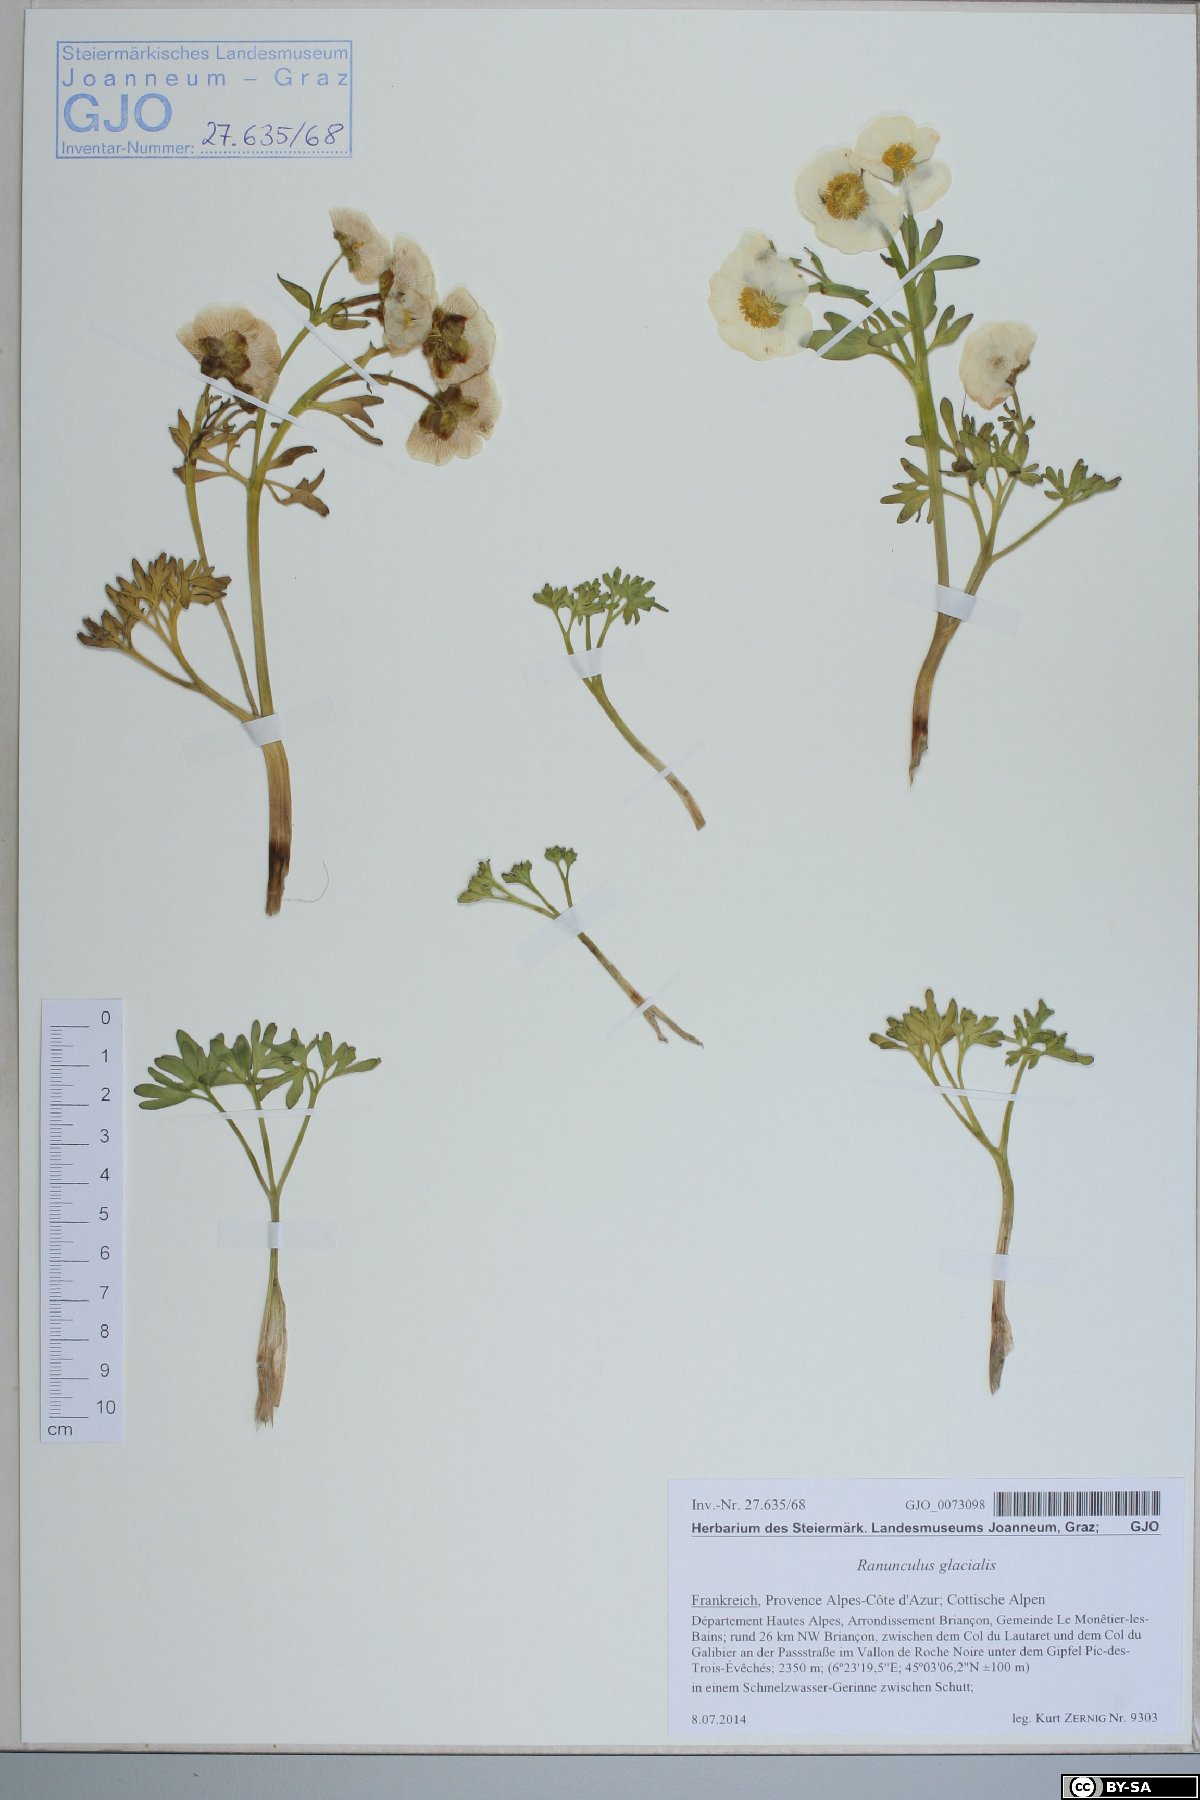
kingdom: Plantae
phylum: Tracheophyta
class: Magnoliopsida
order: Ranunculales
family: Ranunculaceae
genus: Ranunculus
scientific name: Ranunculus glacialis
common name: Glacier buttercup
